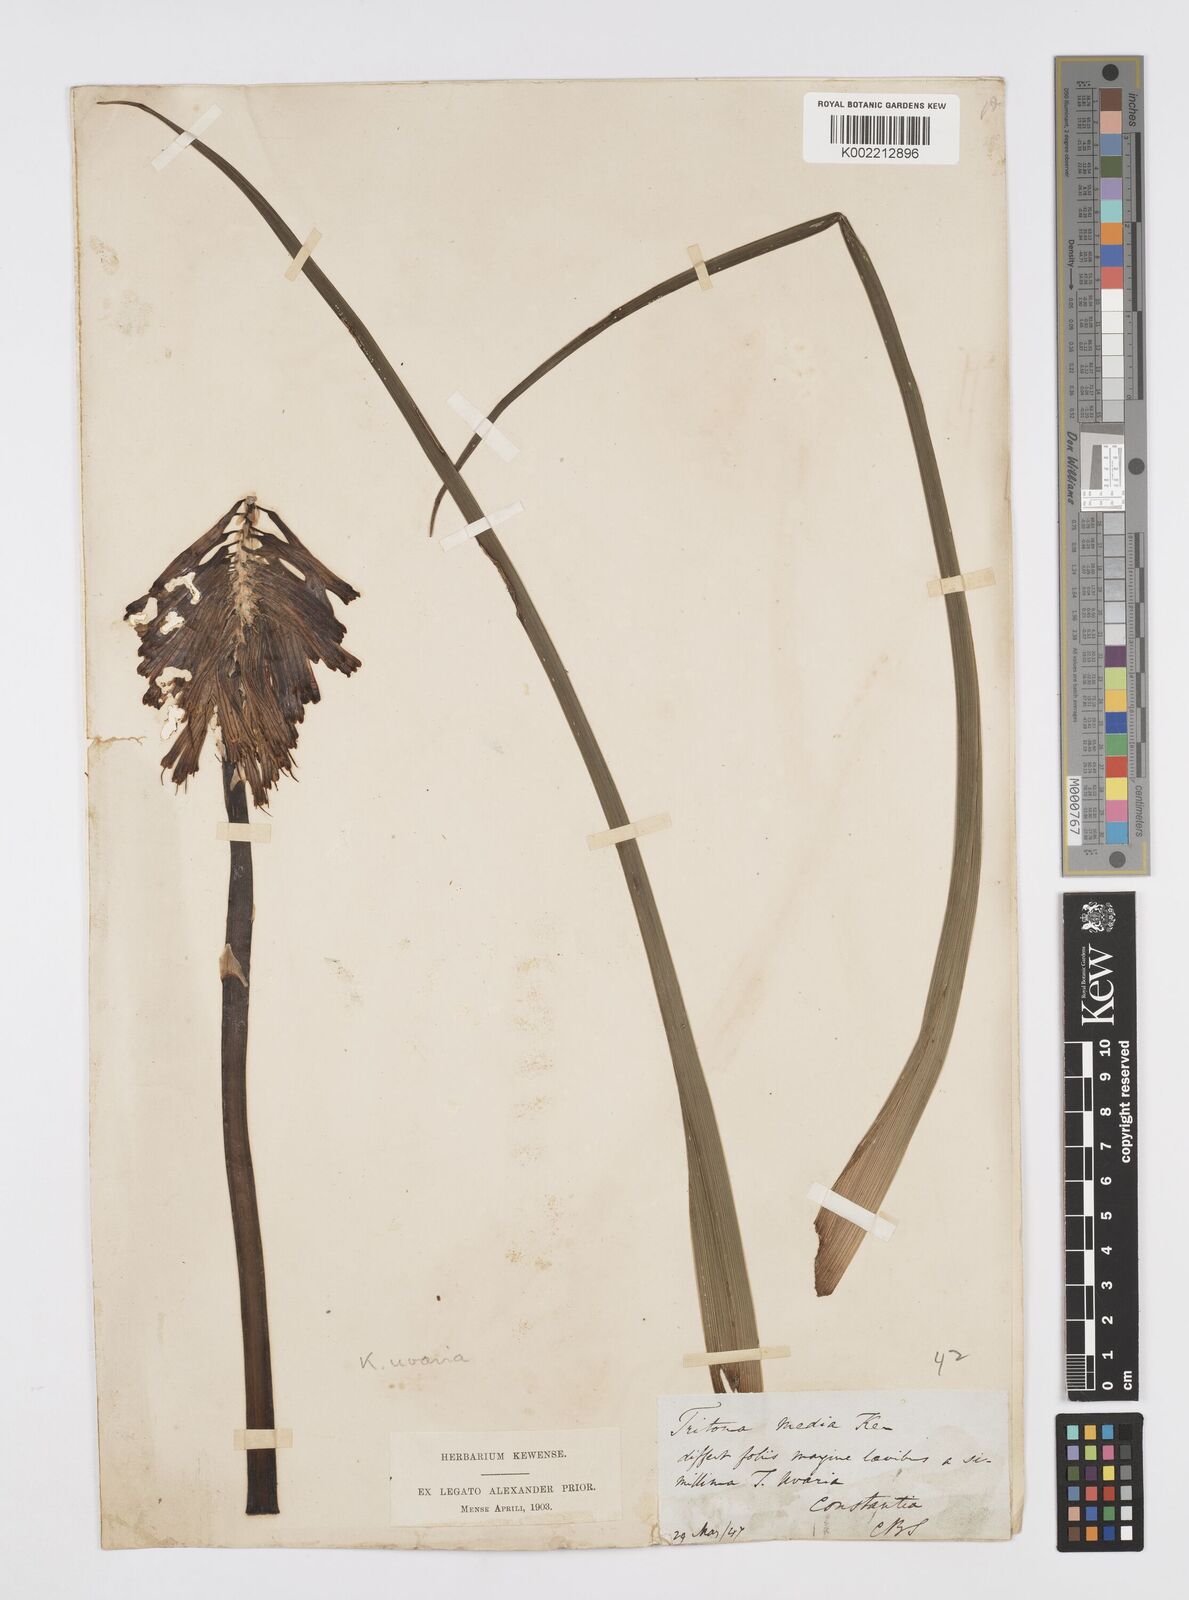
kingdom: Plantae
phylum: Tracheophyta
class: Liliopsida
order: Asparagales
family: Asphodelaceae
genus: Kniphofia
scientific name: Kniphofia uvaria
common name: Red-hot-poker
